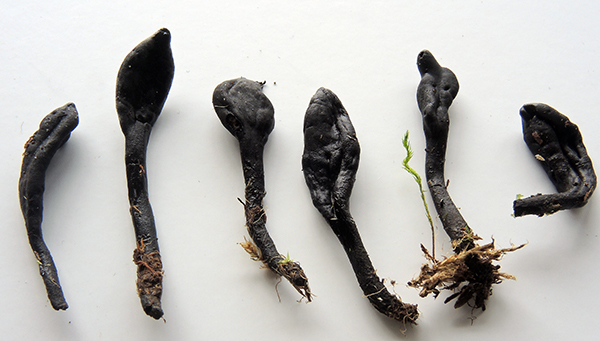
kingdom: Fungi
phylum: Ascomycota
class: Geoglossomycetes
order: Geoglossales
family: Geoglossaceae
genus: Glutinoglossum
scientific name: Glutinoglossum heptaseptatum
